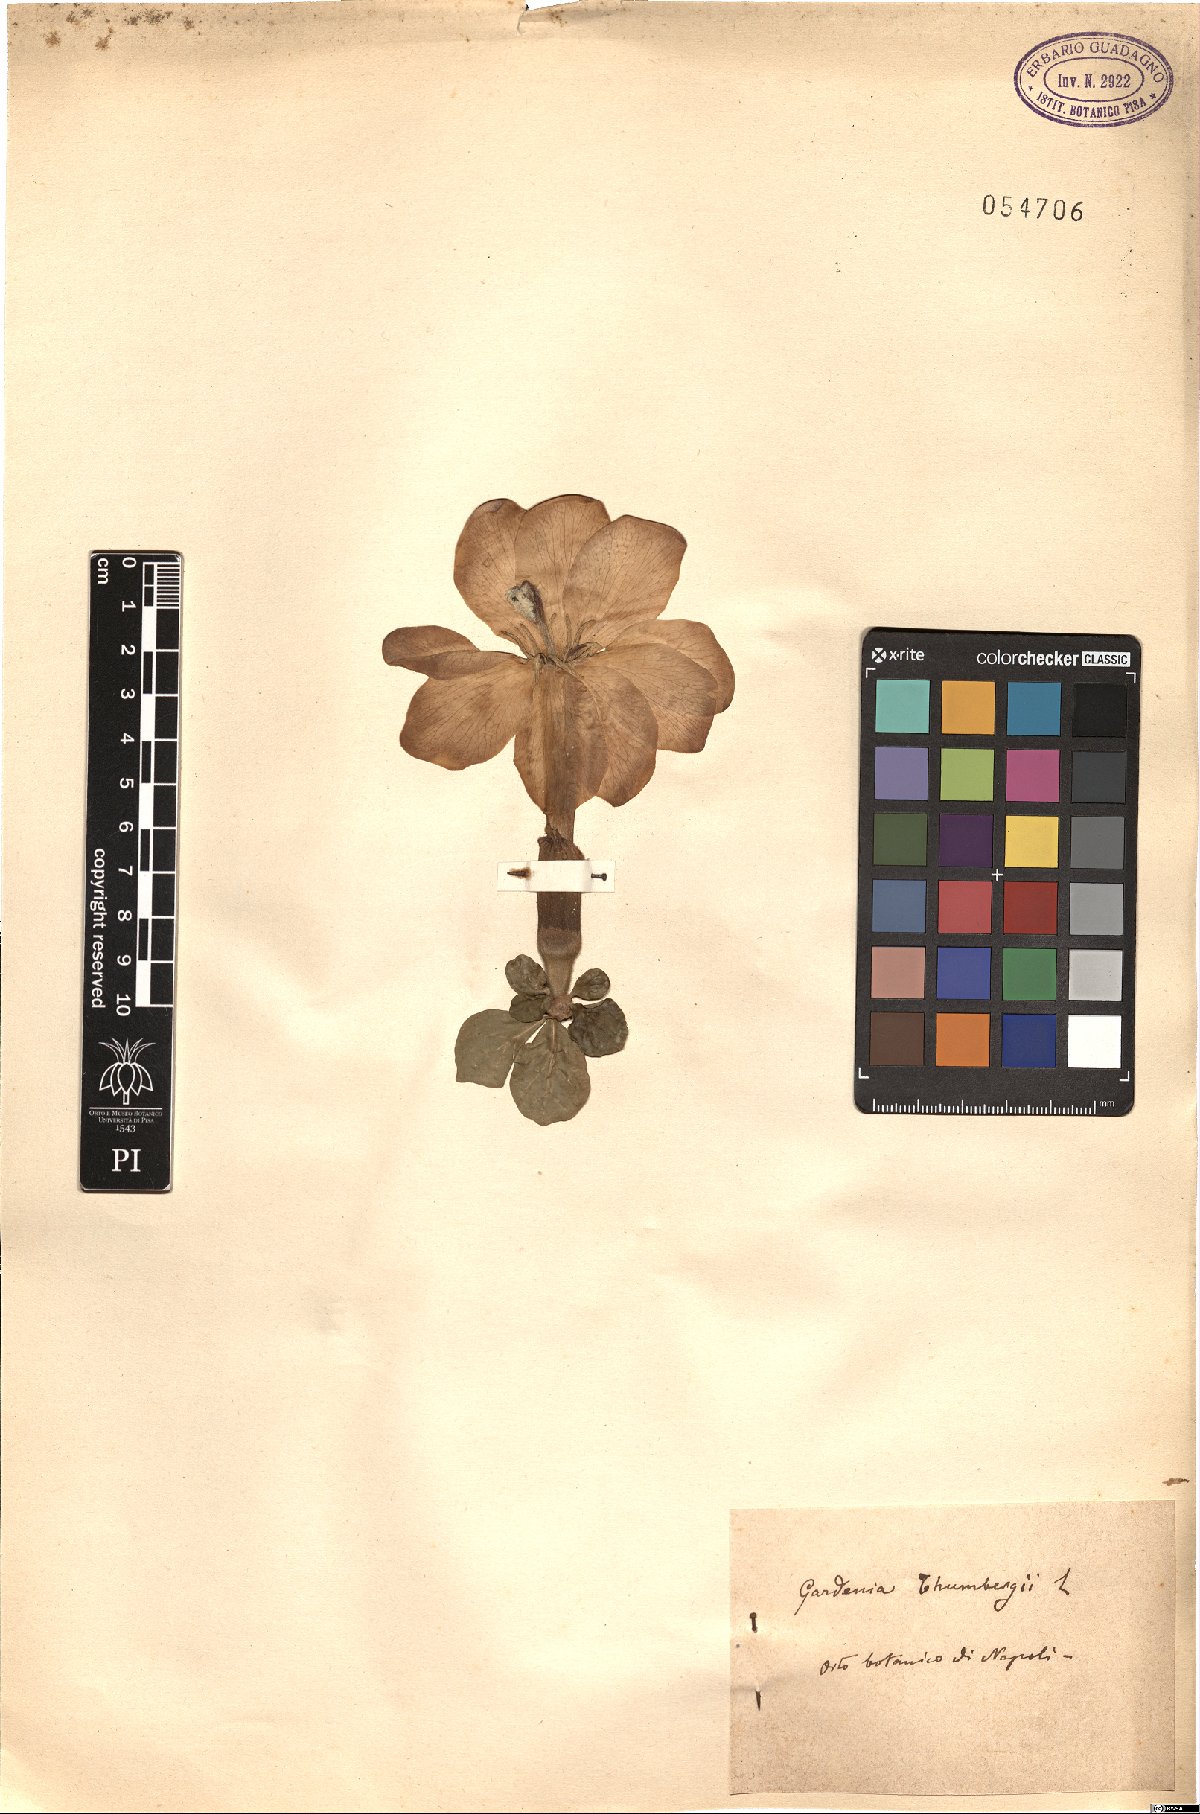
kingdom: Plantae
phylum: Tracheophyta
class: Magnoliopsida
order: Gentianales
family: Rubiaceae
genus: Gardenia
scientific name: Gardenia thunbergia
